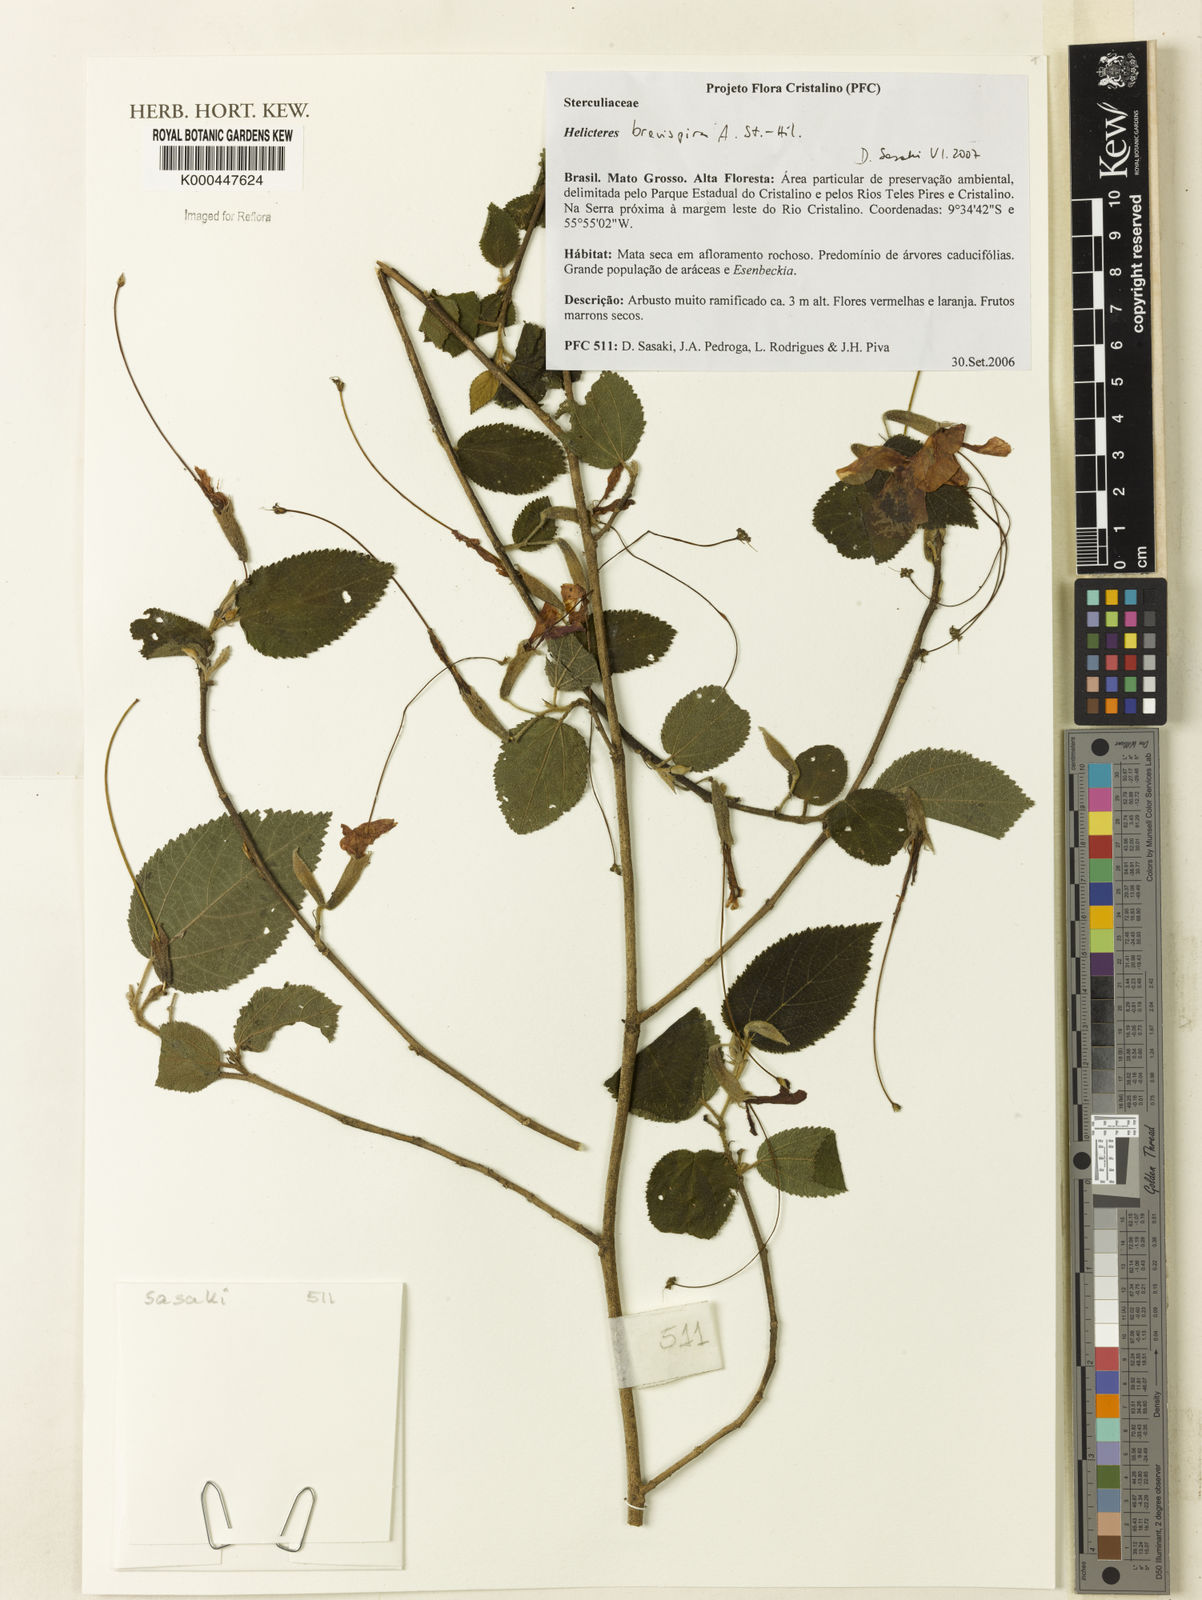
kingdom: Plantae
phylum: Tracheophyta
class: Magnoliopsida
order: Malvales
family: Malvaceae
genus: Helicteres
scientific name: Helicteres
